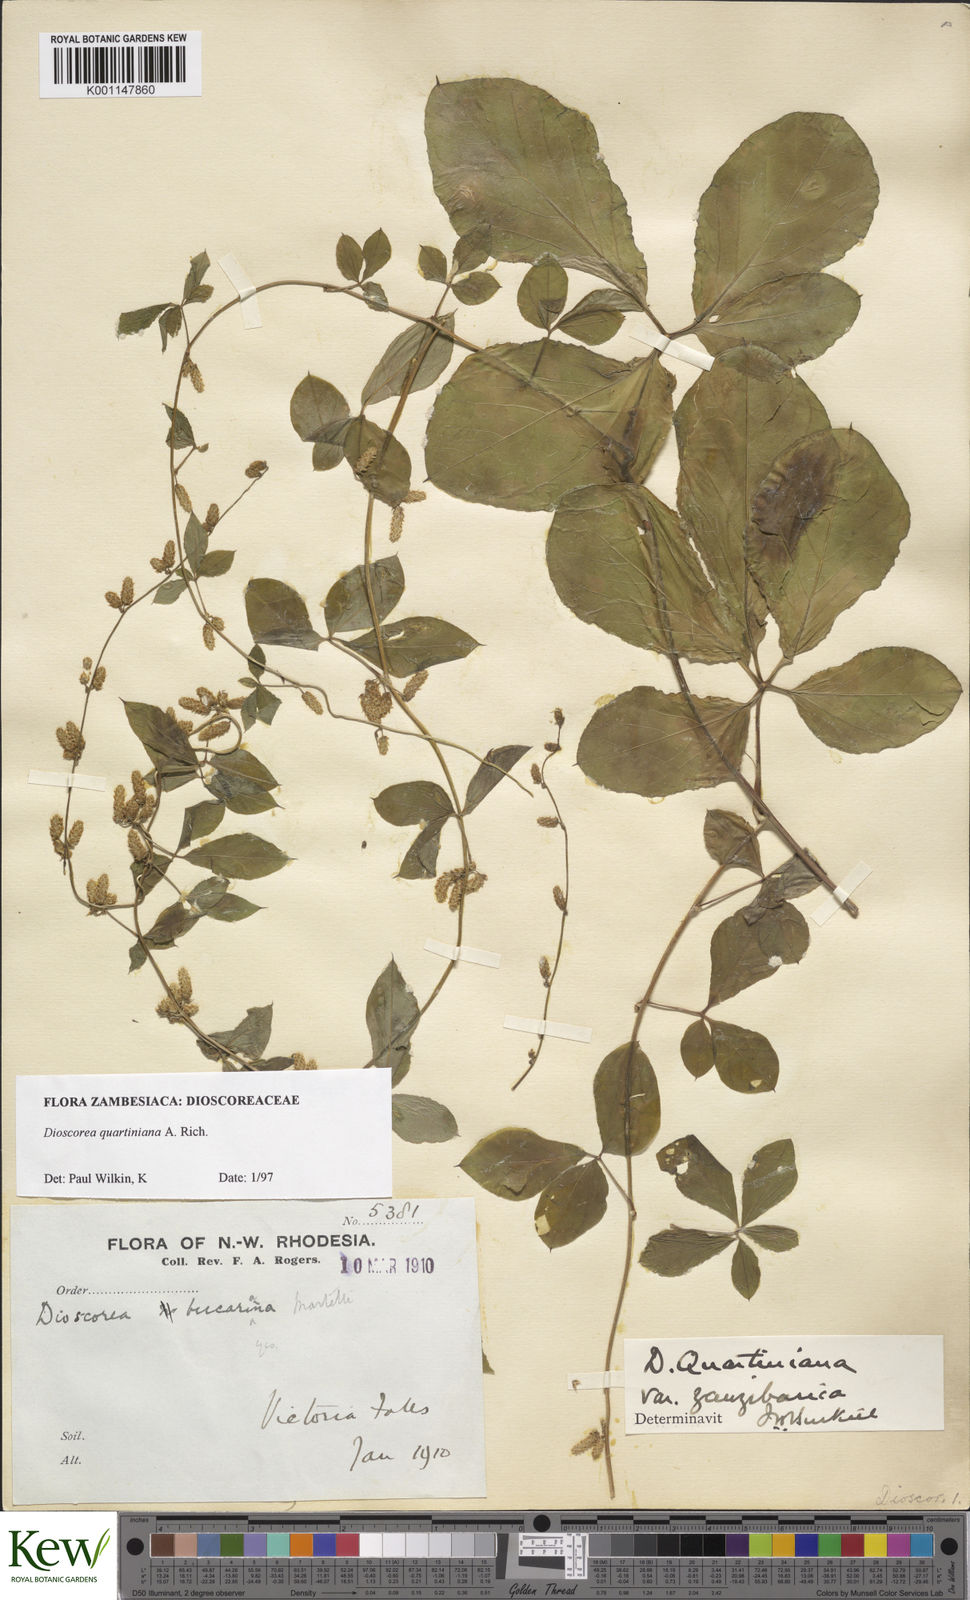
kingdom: Plantae
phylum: Tracheophyta
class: Liliopsida
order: Dioscoreales
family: Dioscoreaceae
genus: Dioscorea
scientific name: Dioscorea quartiniana
